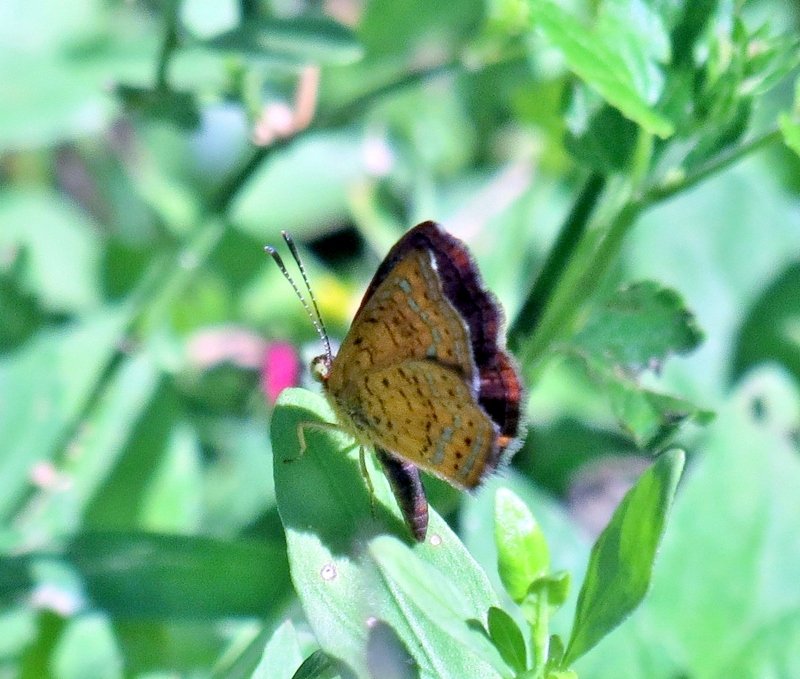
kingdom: Animalia
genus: Calephelis
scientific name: Calephelis perditalis
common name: Rounded Metalmark
